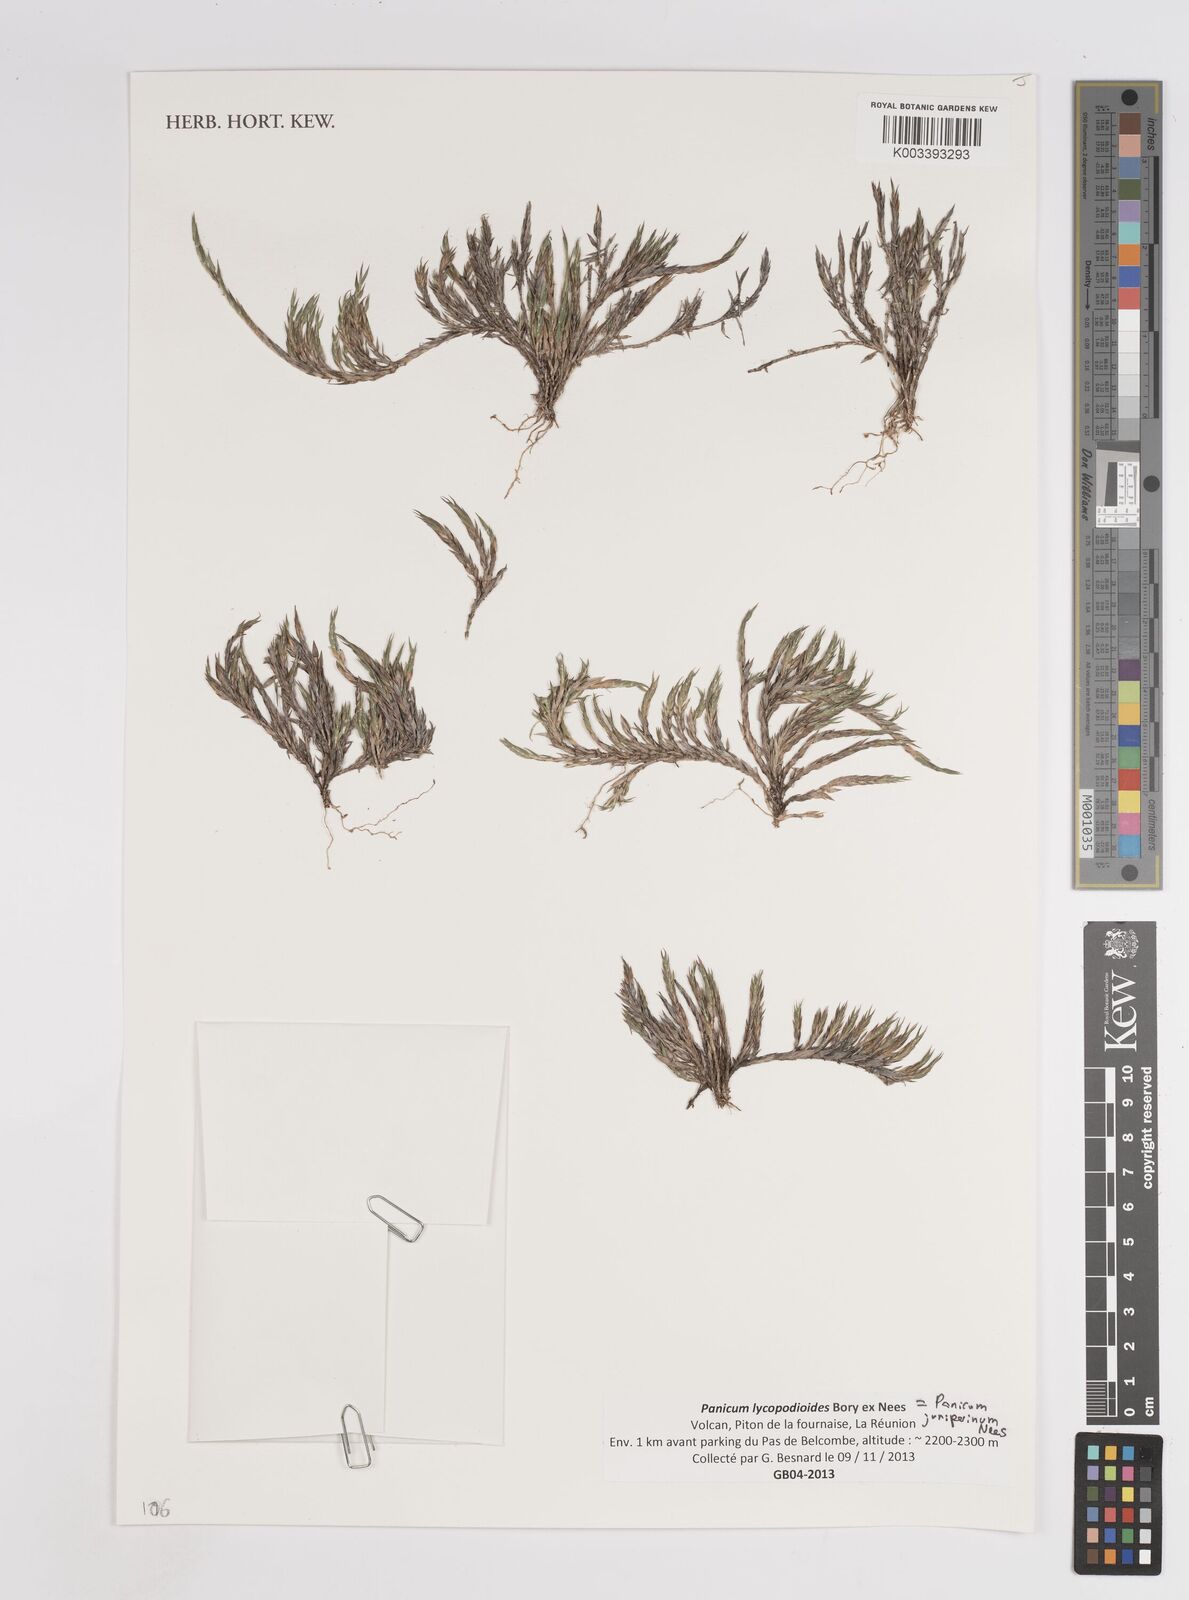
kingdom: Plantae
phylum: Tracheophyta
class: Liliopsida
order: Poales
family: Poaceae
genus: Panicum
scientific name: Panicum lycopodioides
